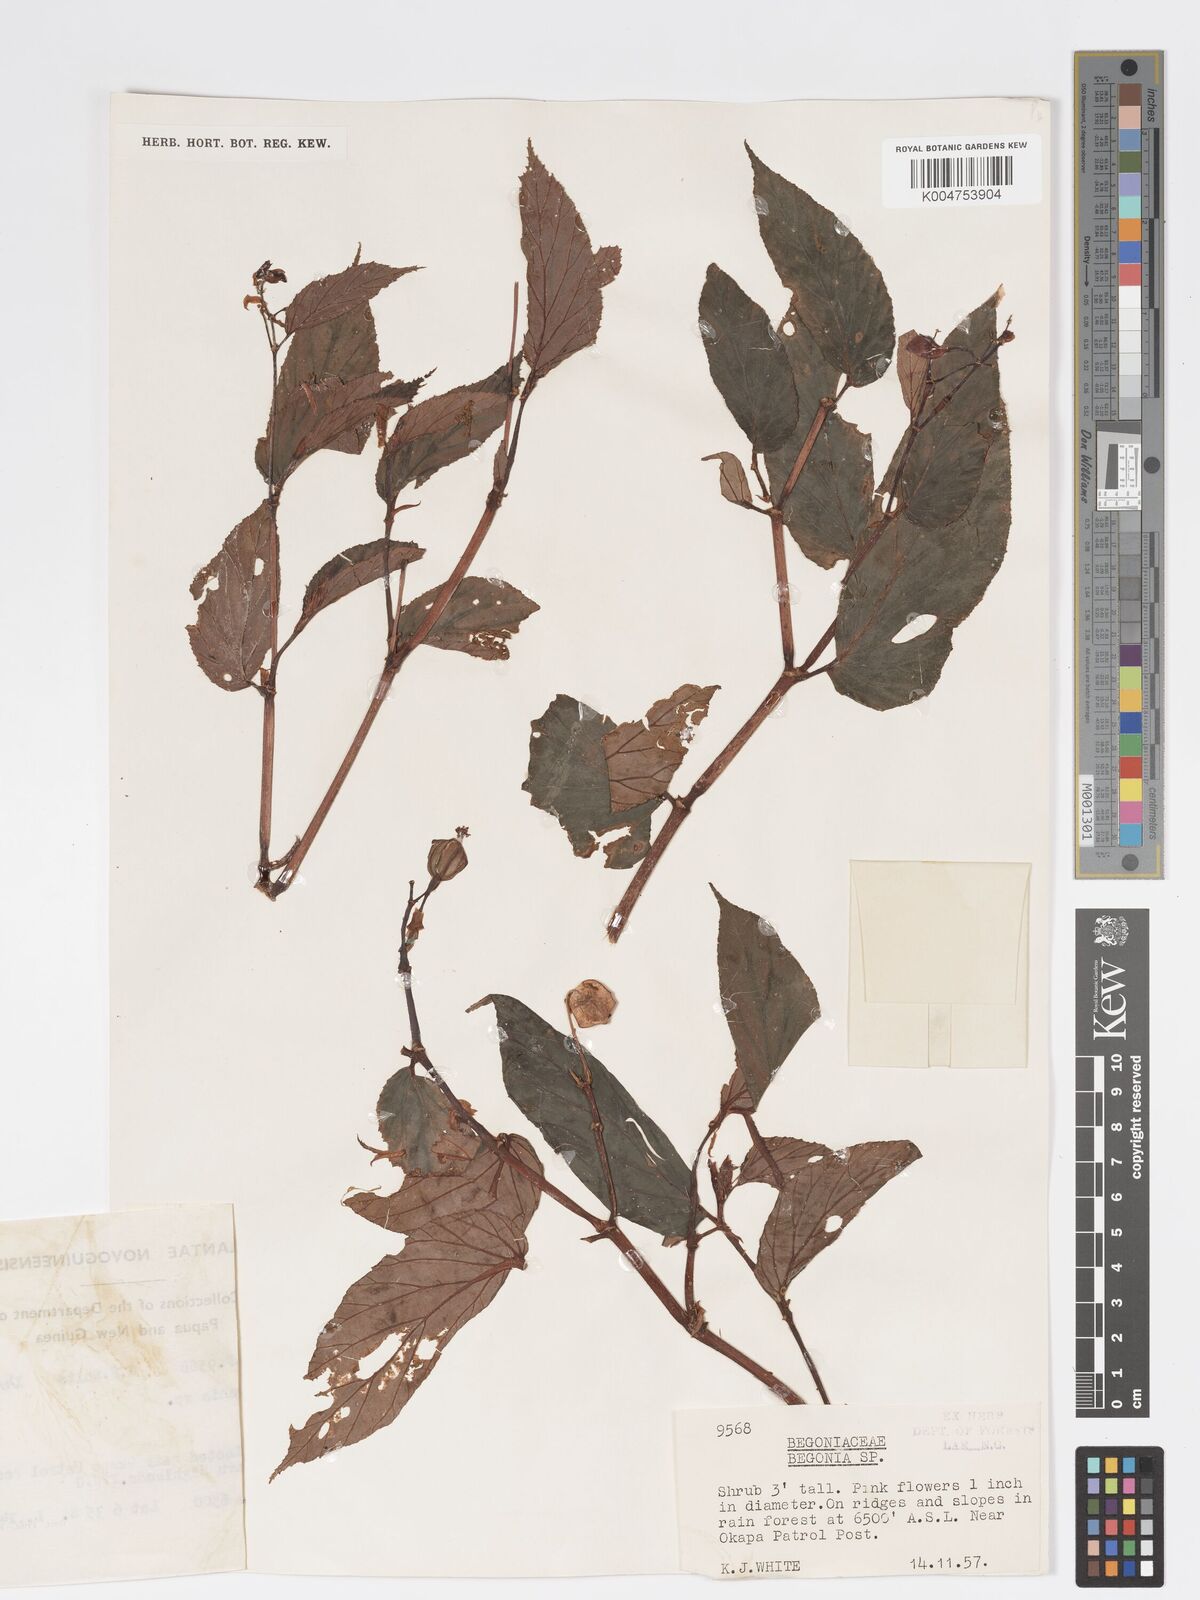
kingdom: Plantae
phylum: Tracheophyta
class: Magnoliopsida
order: Cucurbitales
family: Begoniaceae
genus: Begonia
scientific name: Begonia
